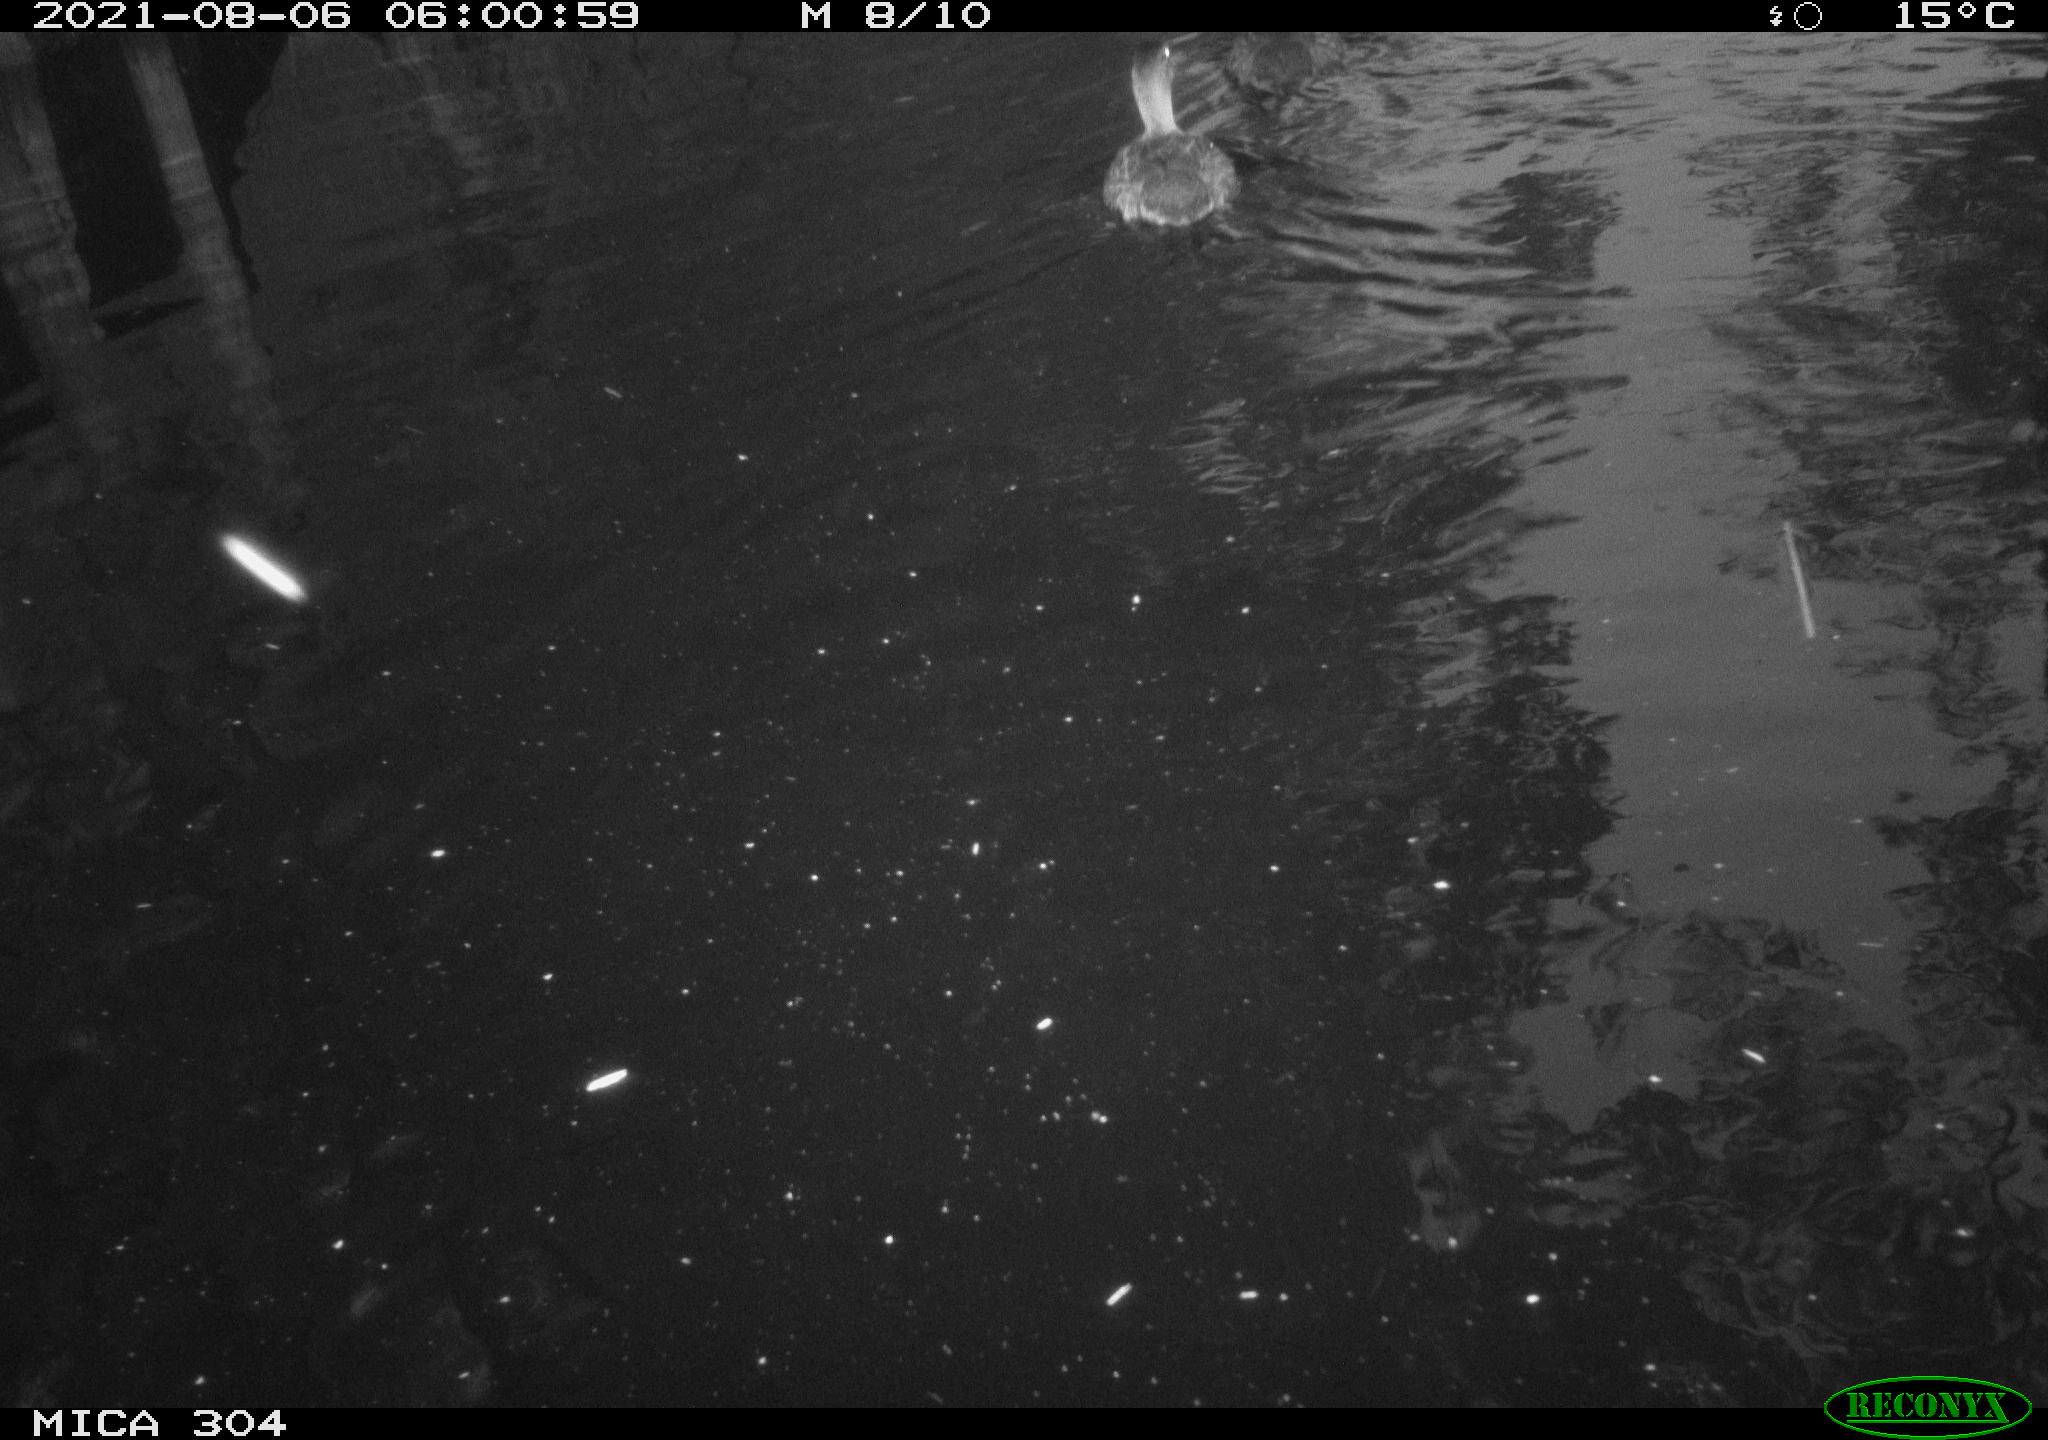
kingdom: Animalia
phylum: Chordata
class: Aves
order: Pelecaniformes
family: Ardeidae
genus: Ardea
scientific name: Ardea
